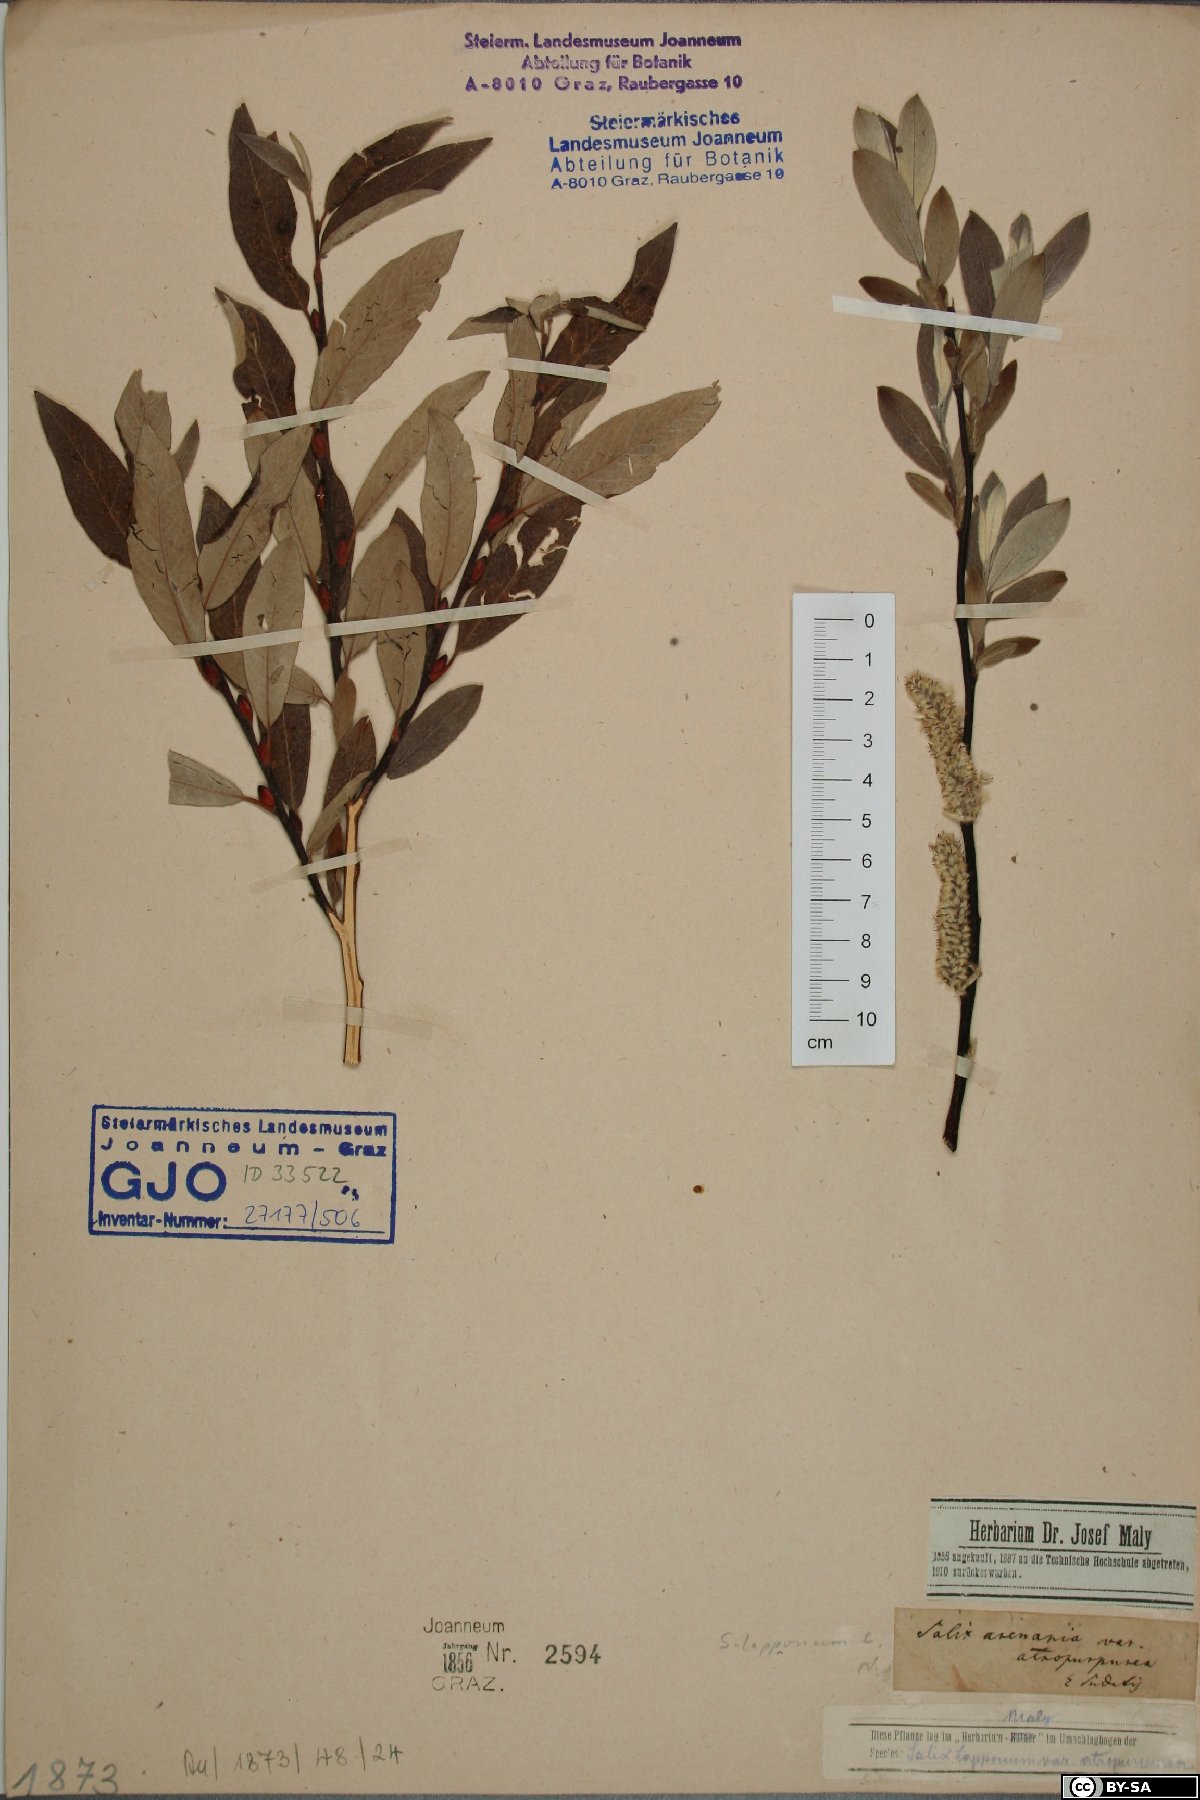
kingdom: Plantae
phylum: Tracheophyta
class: Magnoliopsida
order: Malpighiales
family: Salicaceae
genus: Salix
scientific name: Salix lapponum
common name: Downy willow
